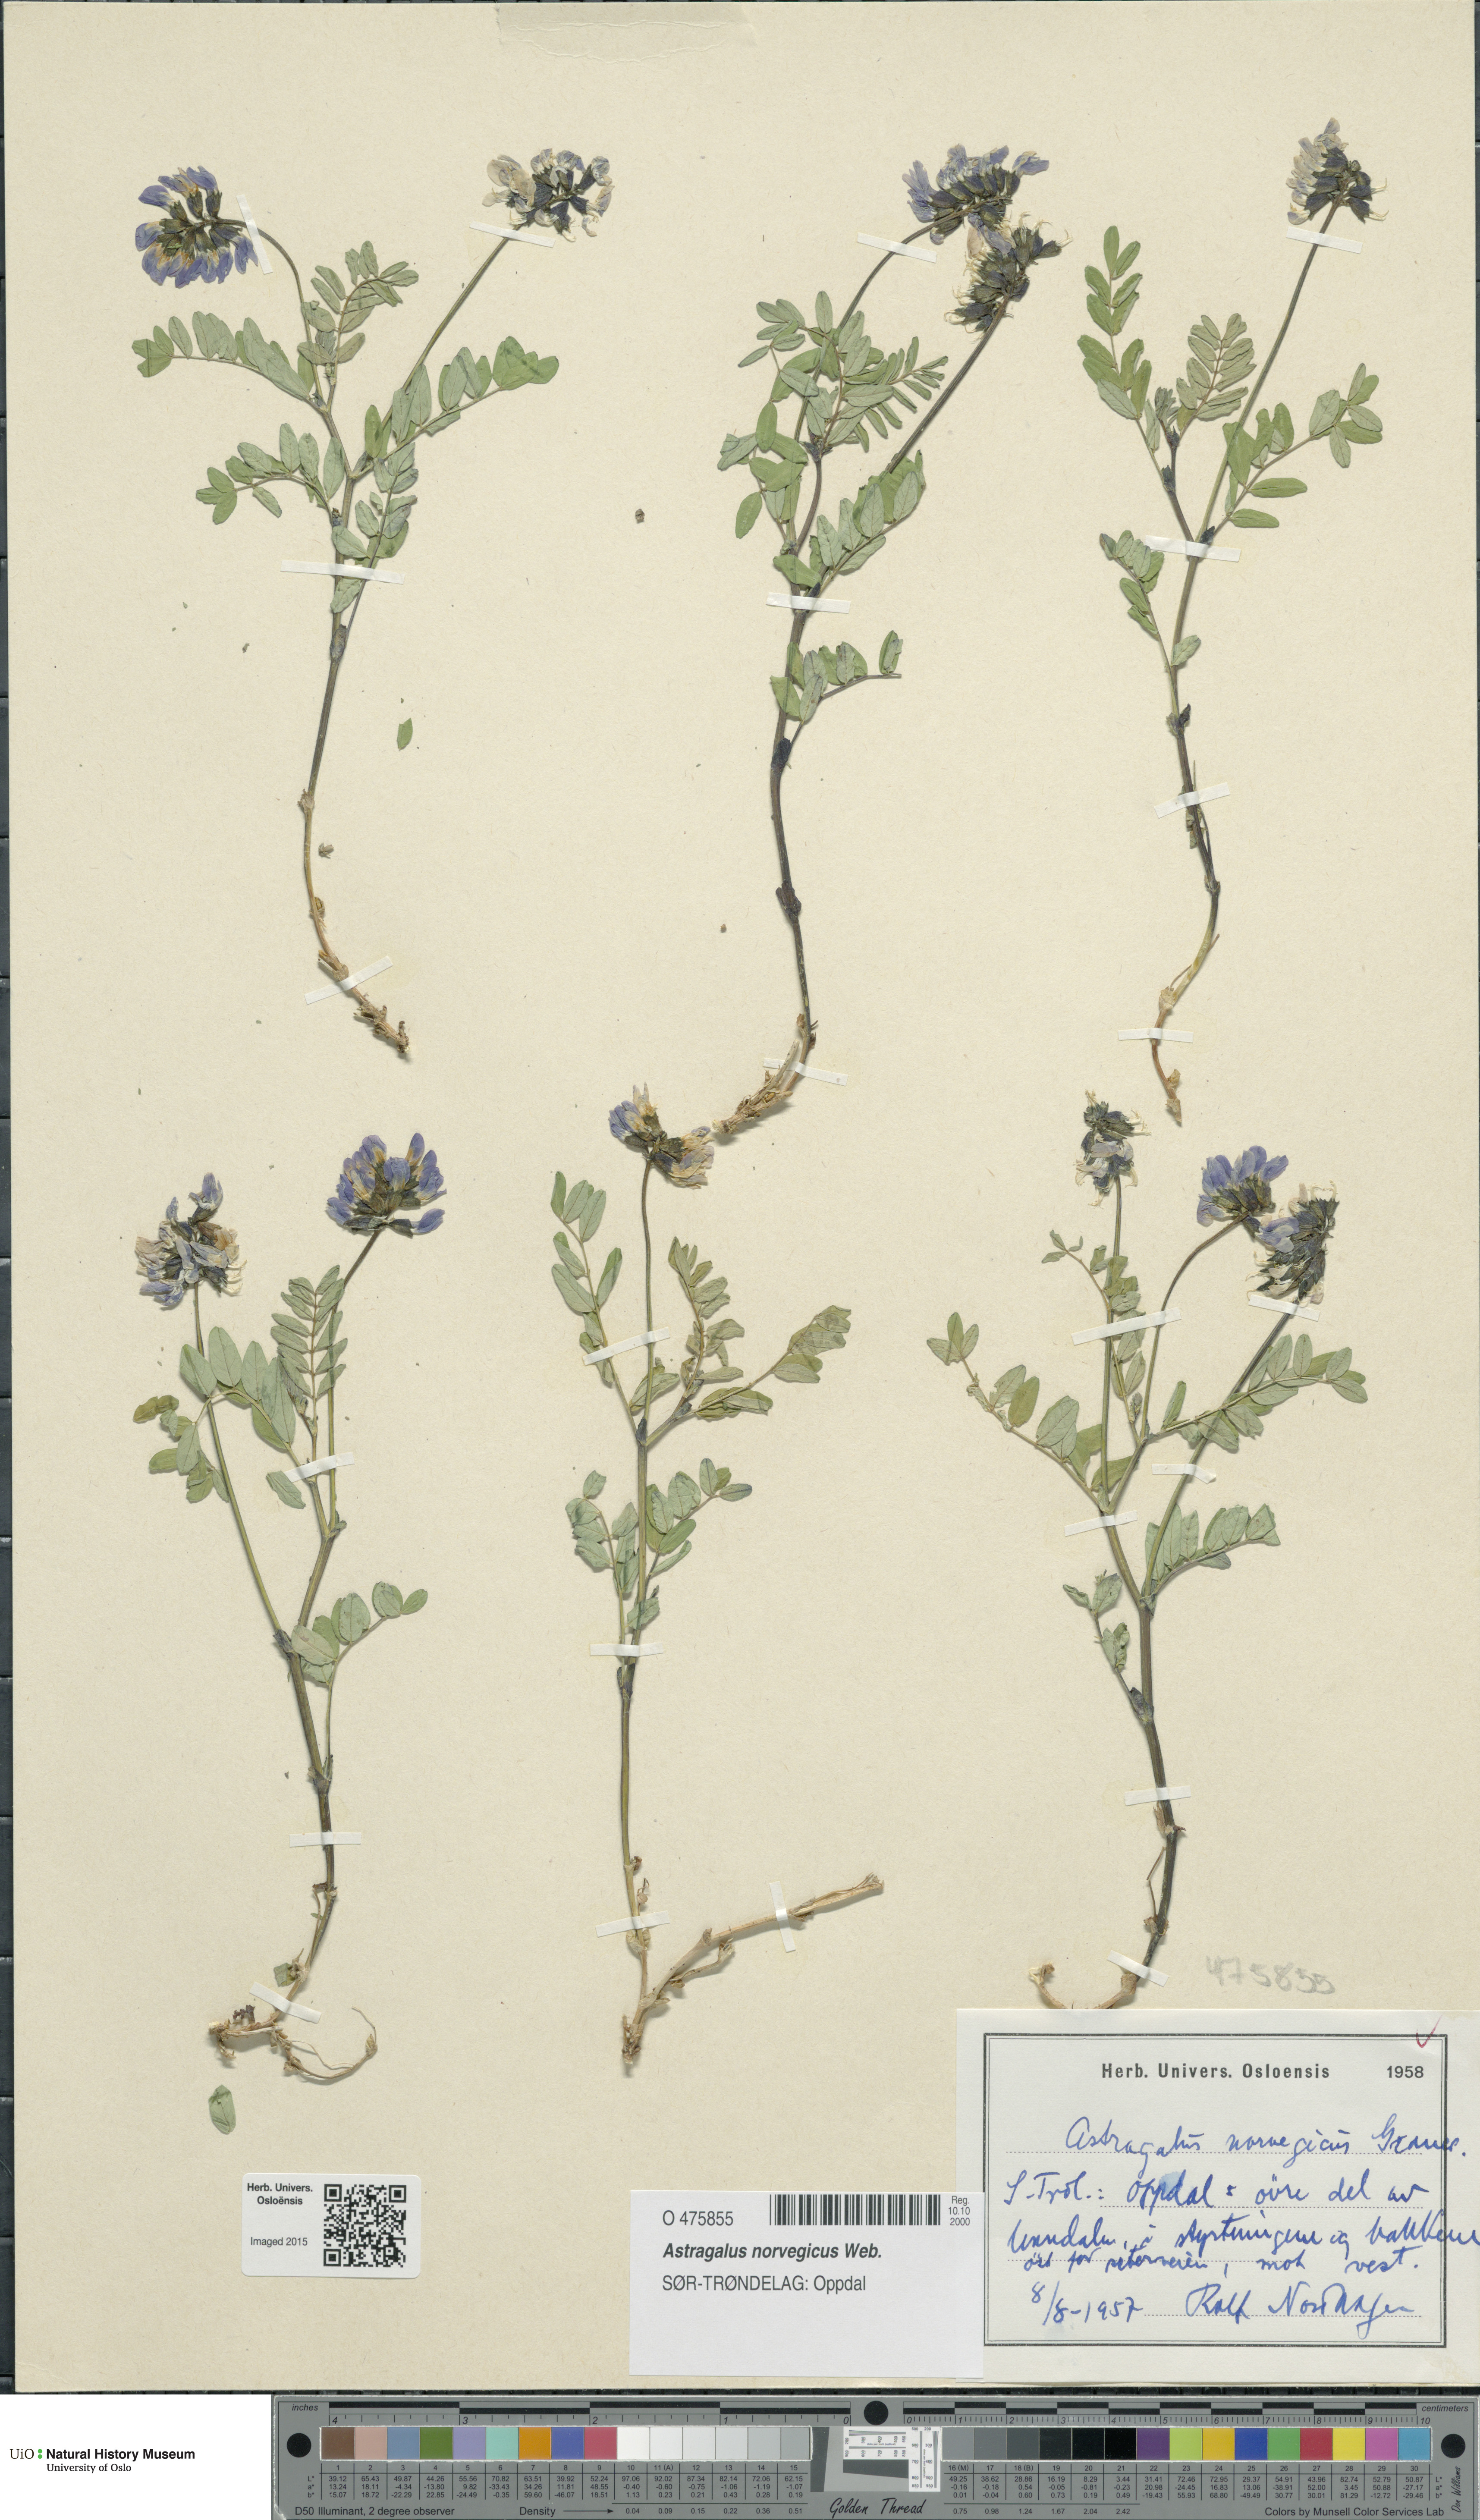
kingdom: Plantae
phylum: Tracheophyta
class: Magnoliopsida
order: Fabales
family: Fabaceae
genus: Astragalus
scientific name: Astragalus norvegicus
